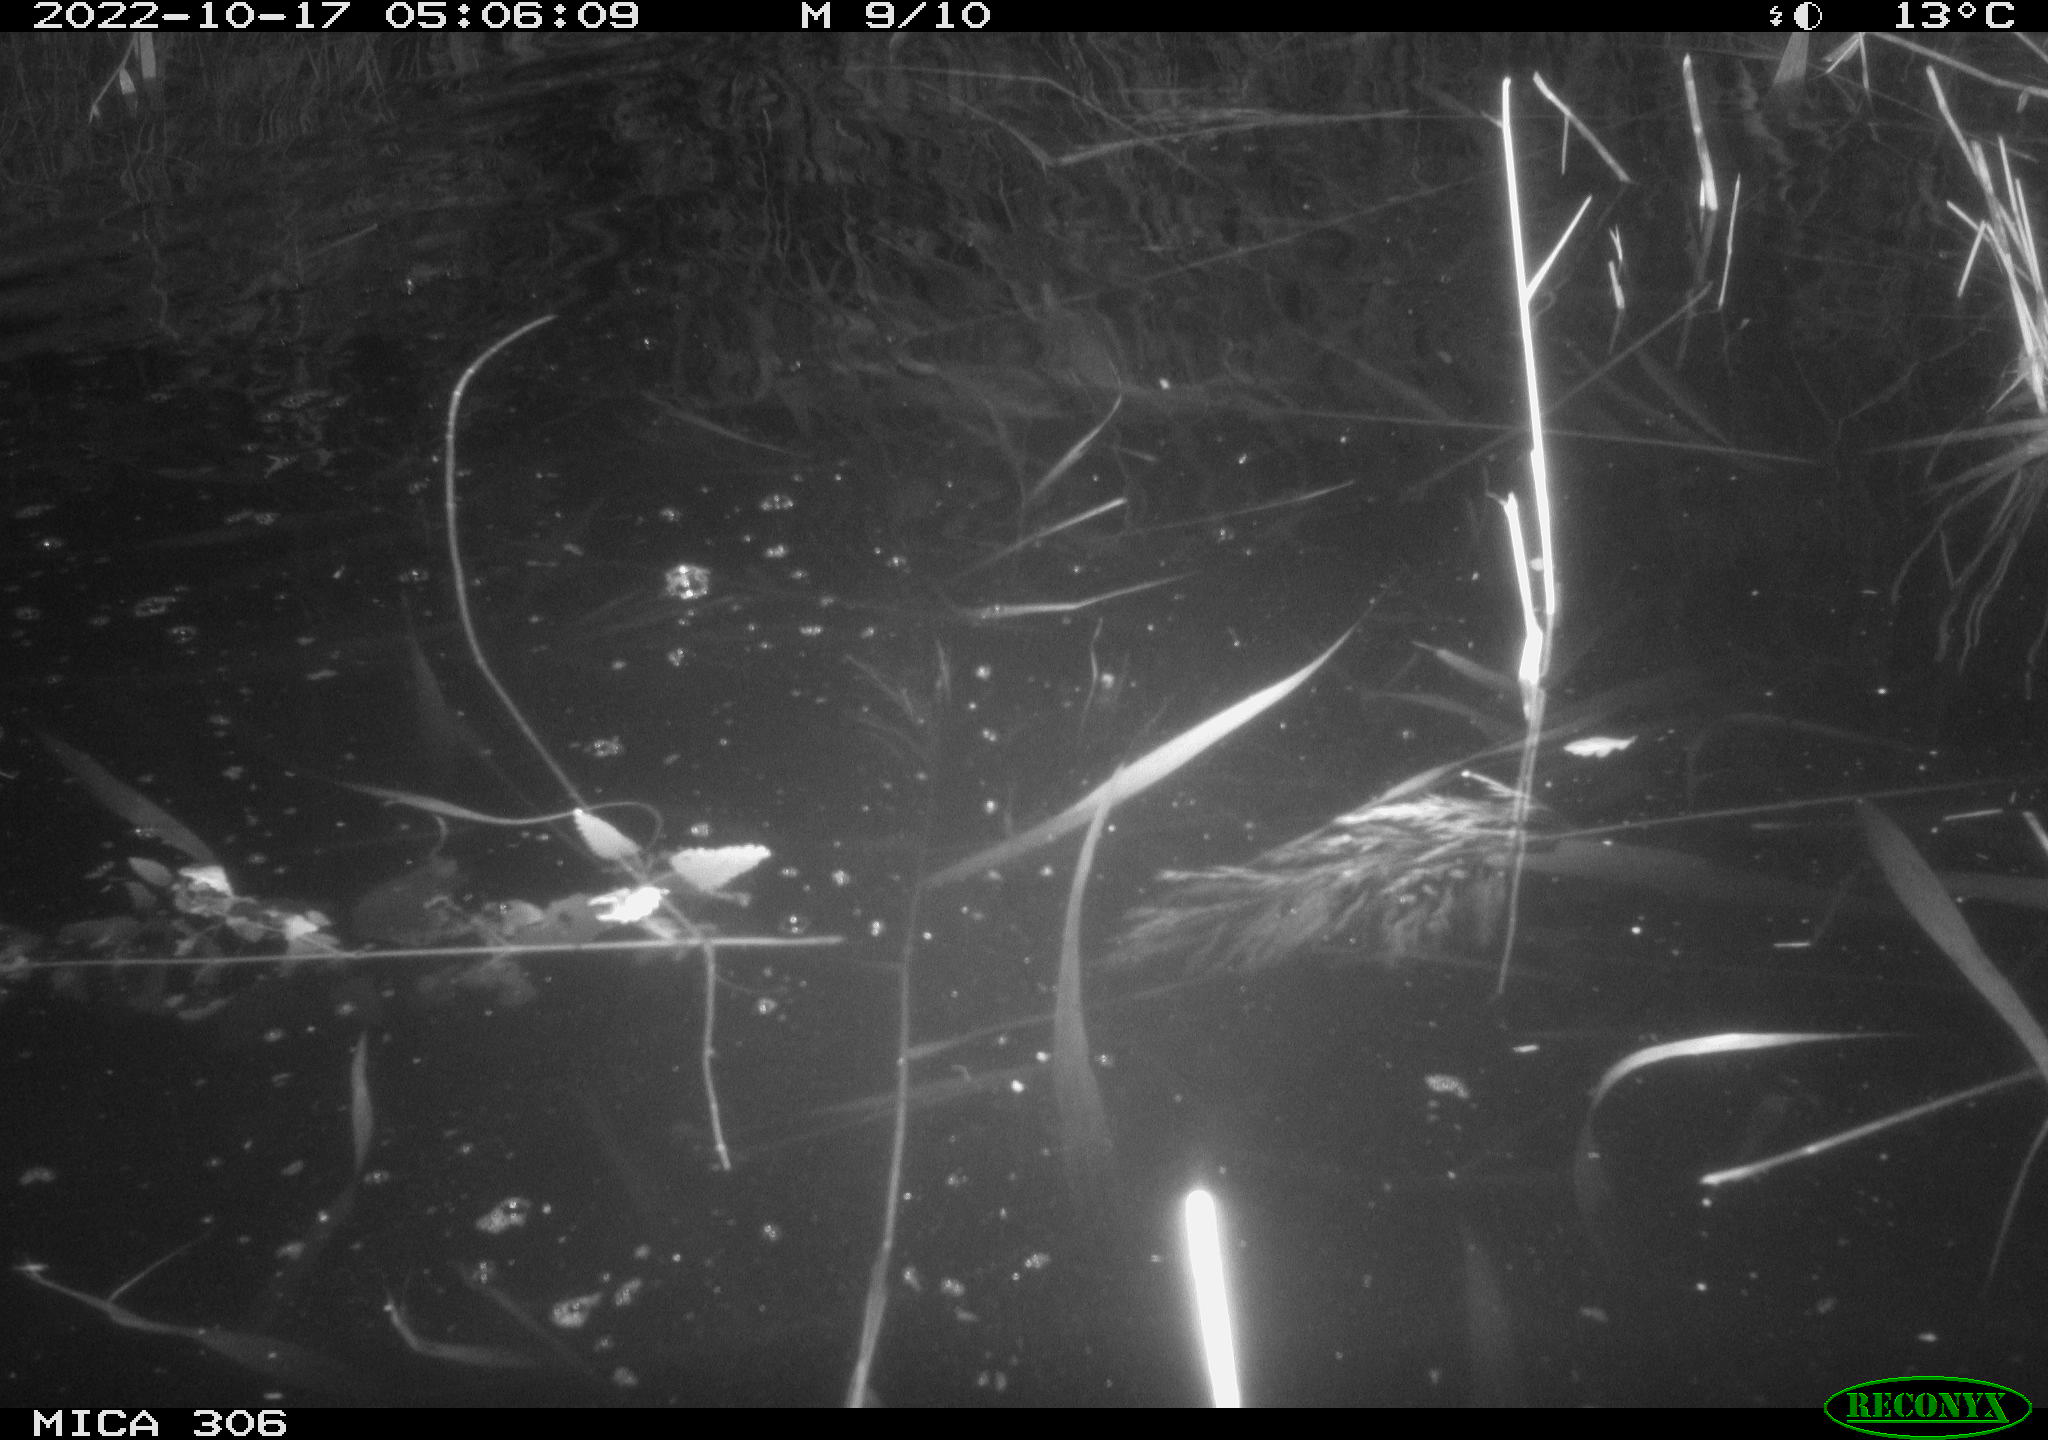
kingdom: Animalia
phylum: Chordata
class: Mammalia
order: Rodentia
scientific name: Rodentia
